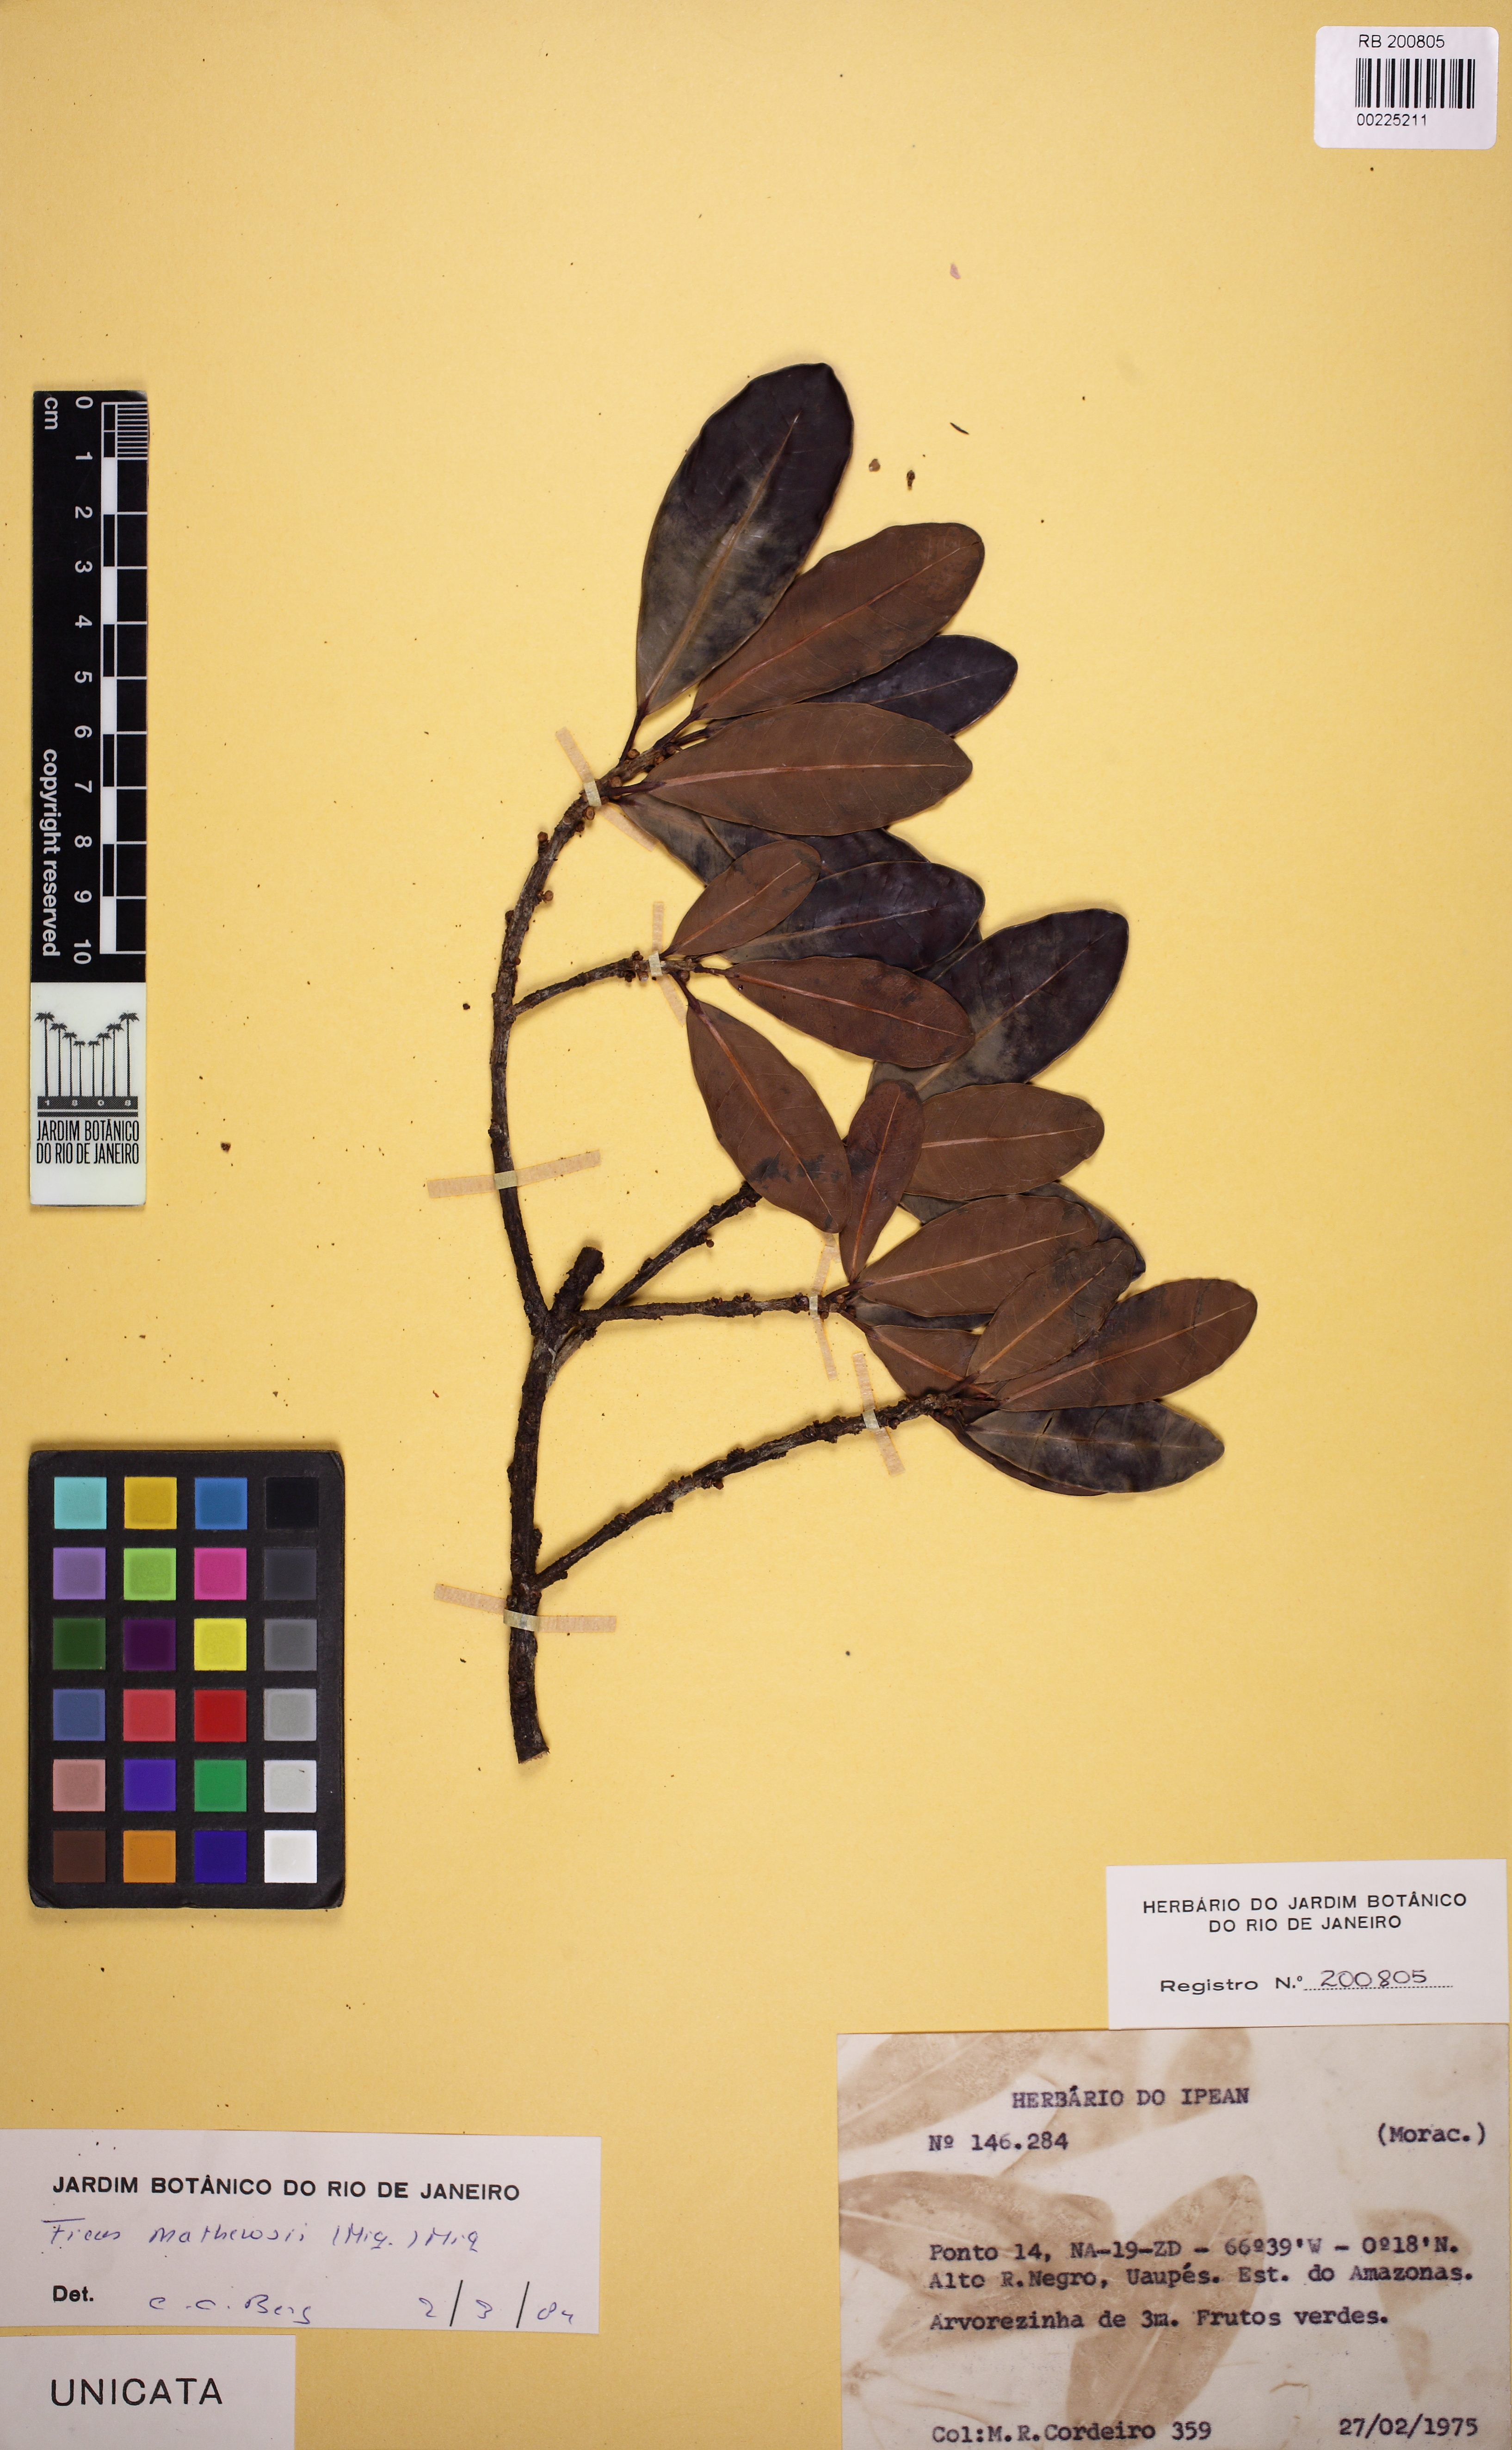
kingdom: Plantae
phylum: Tracheophyta
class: Magnoliopsida
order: Rosales
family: Moraceae
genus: Ficus
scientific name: Ficus mathewsii
